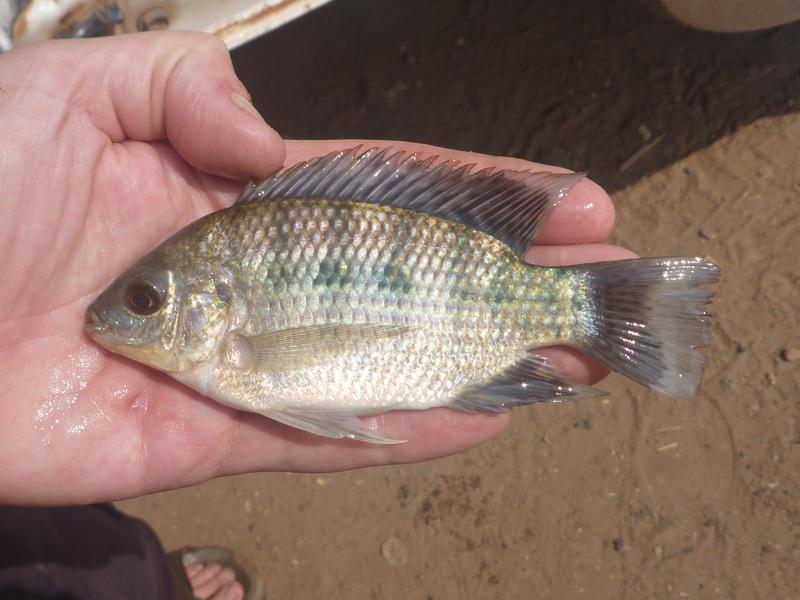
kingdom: Animalia
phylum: Chordata
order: Perciformes
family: Cichlidae
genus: Oreochromis
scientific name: Oreochromis upembae
